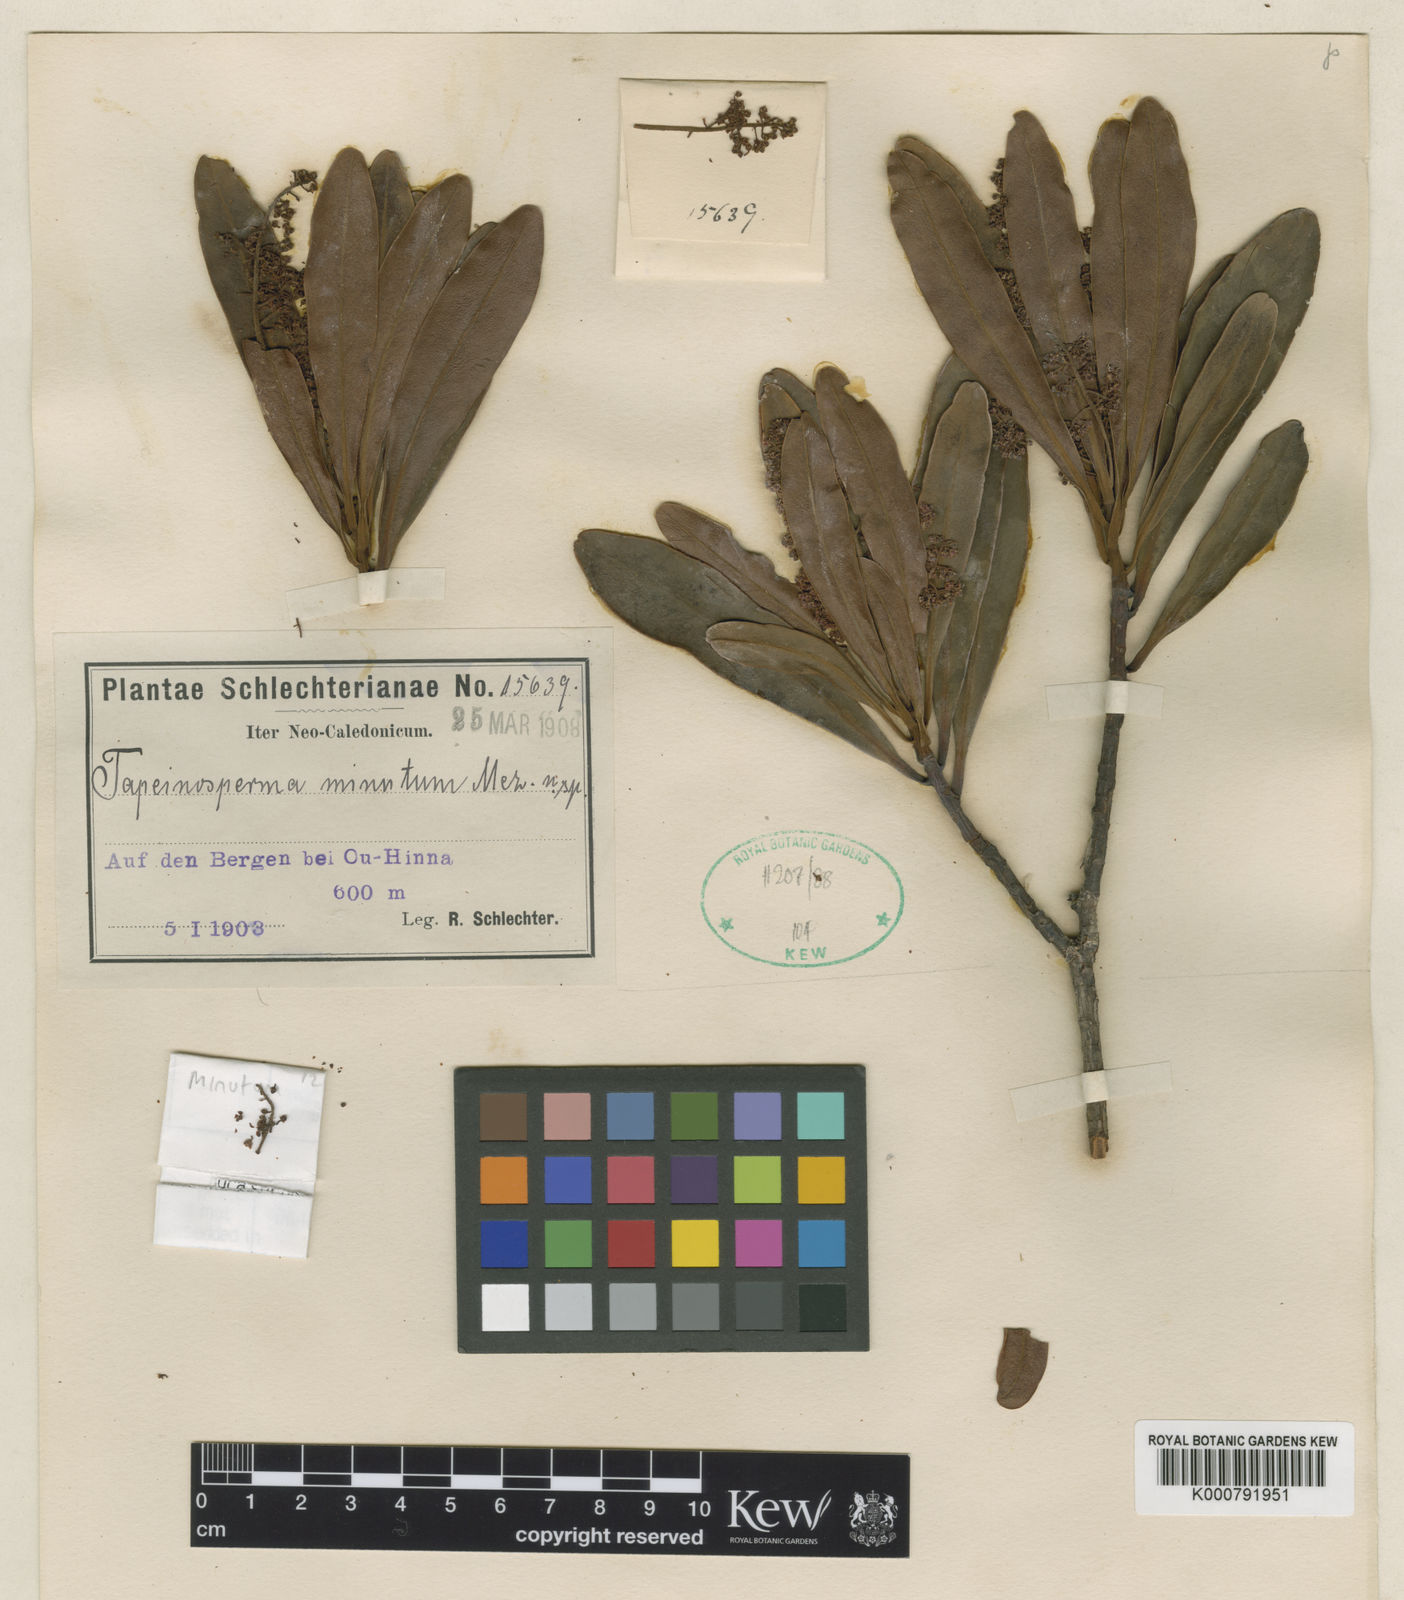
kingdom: Plantae
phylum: Tracheophyta
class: Magnoliopsida
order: Ericales
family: Primulaceae
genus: Tapeinosperma
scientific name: Tapeinosperma minutum
